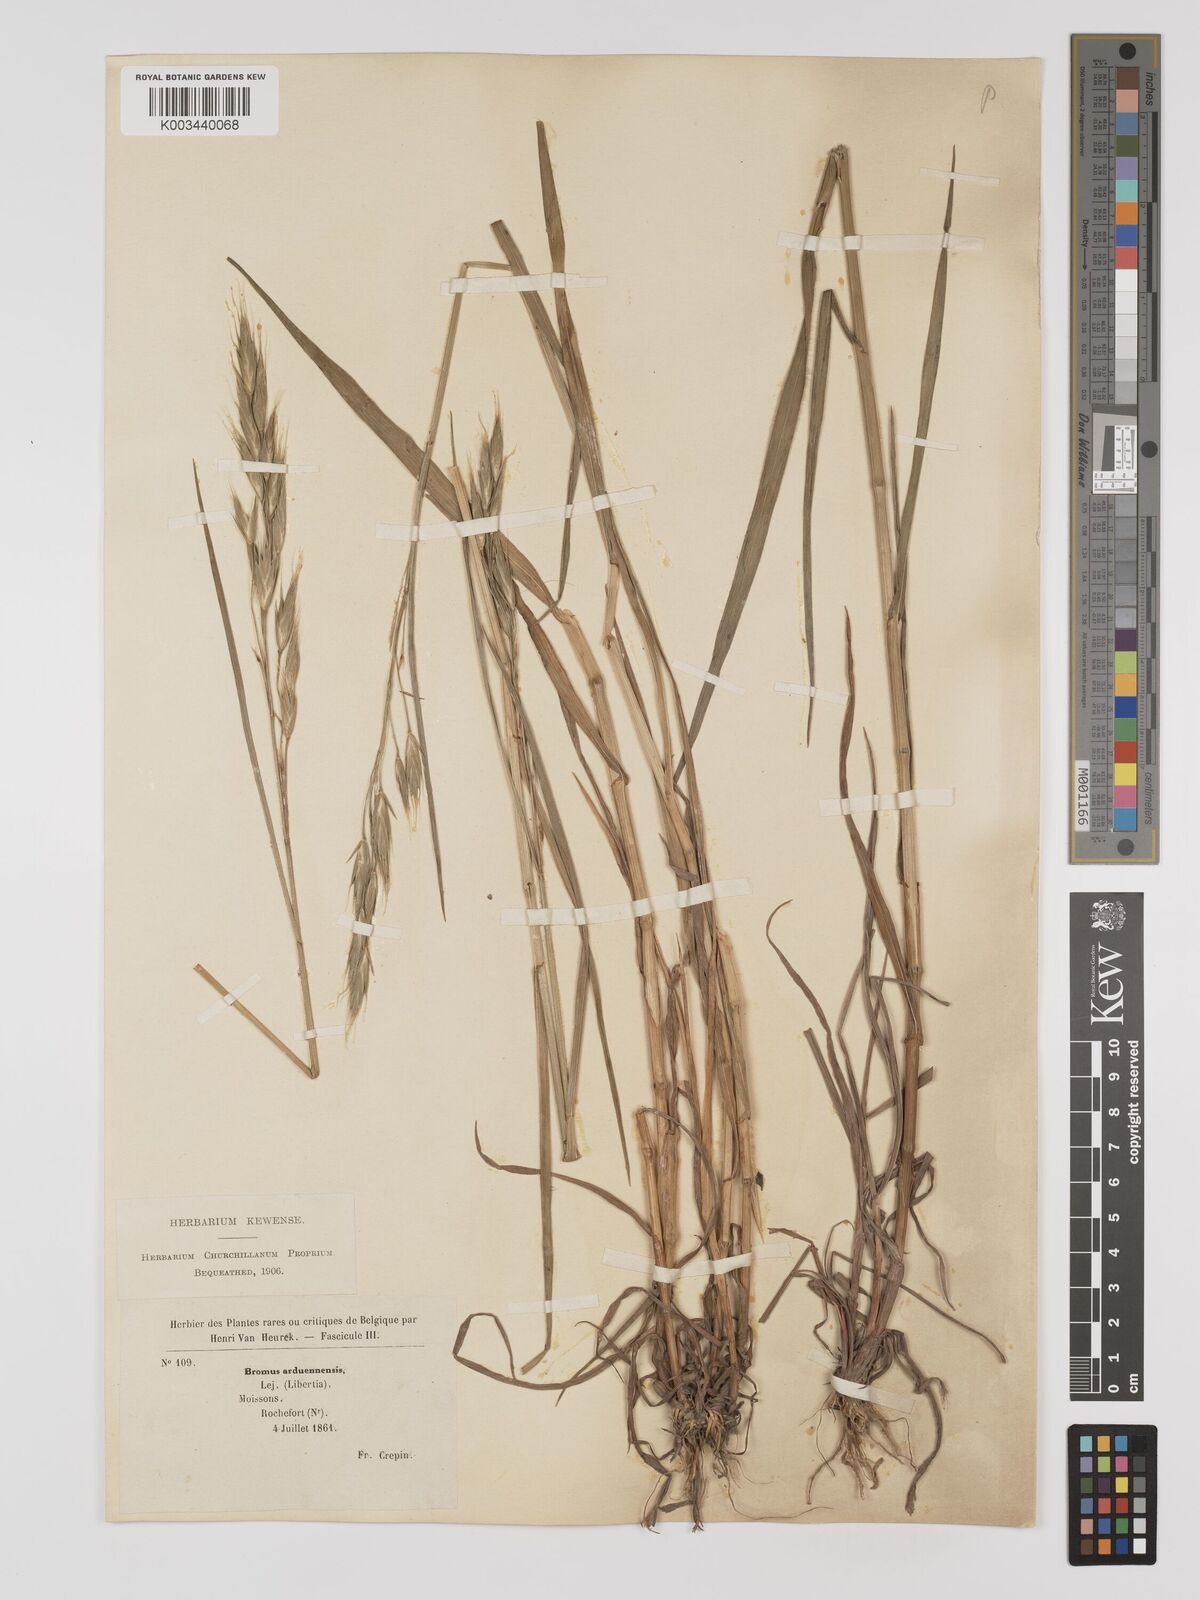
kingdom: Plantae
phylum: Tracheophyta
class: Liliopsida
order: Poales
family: Poaceae
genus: Bromus
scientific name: Bromus bromoideus
